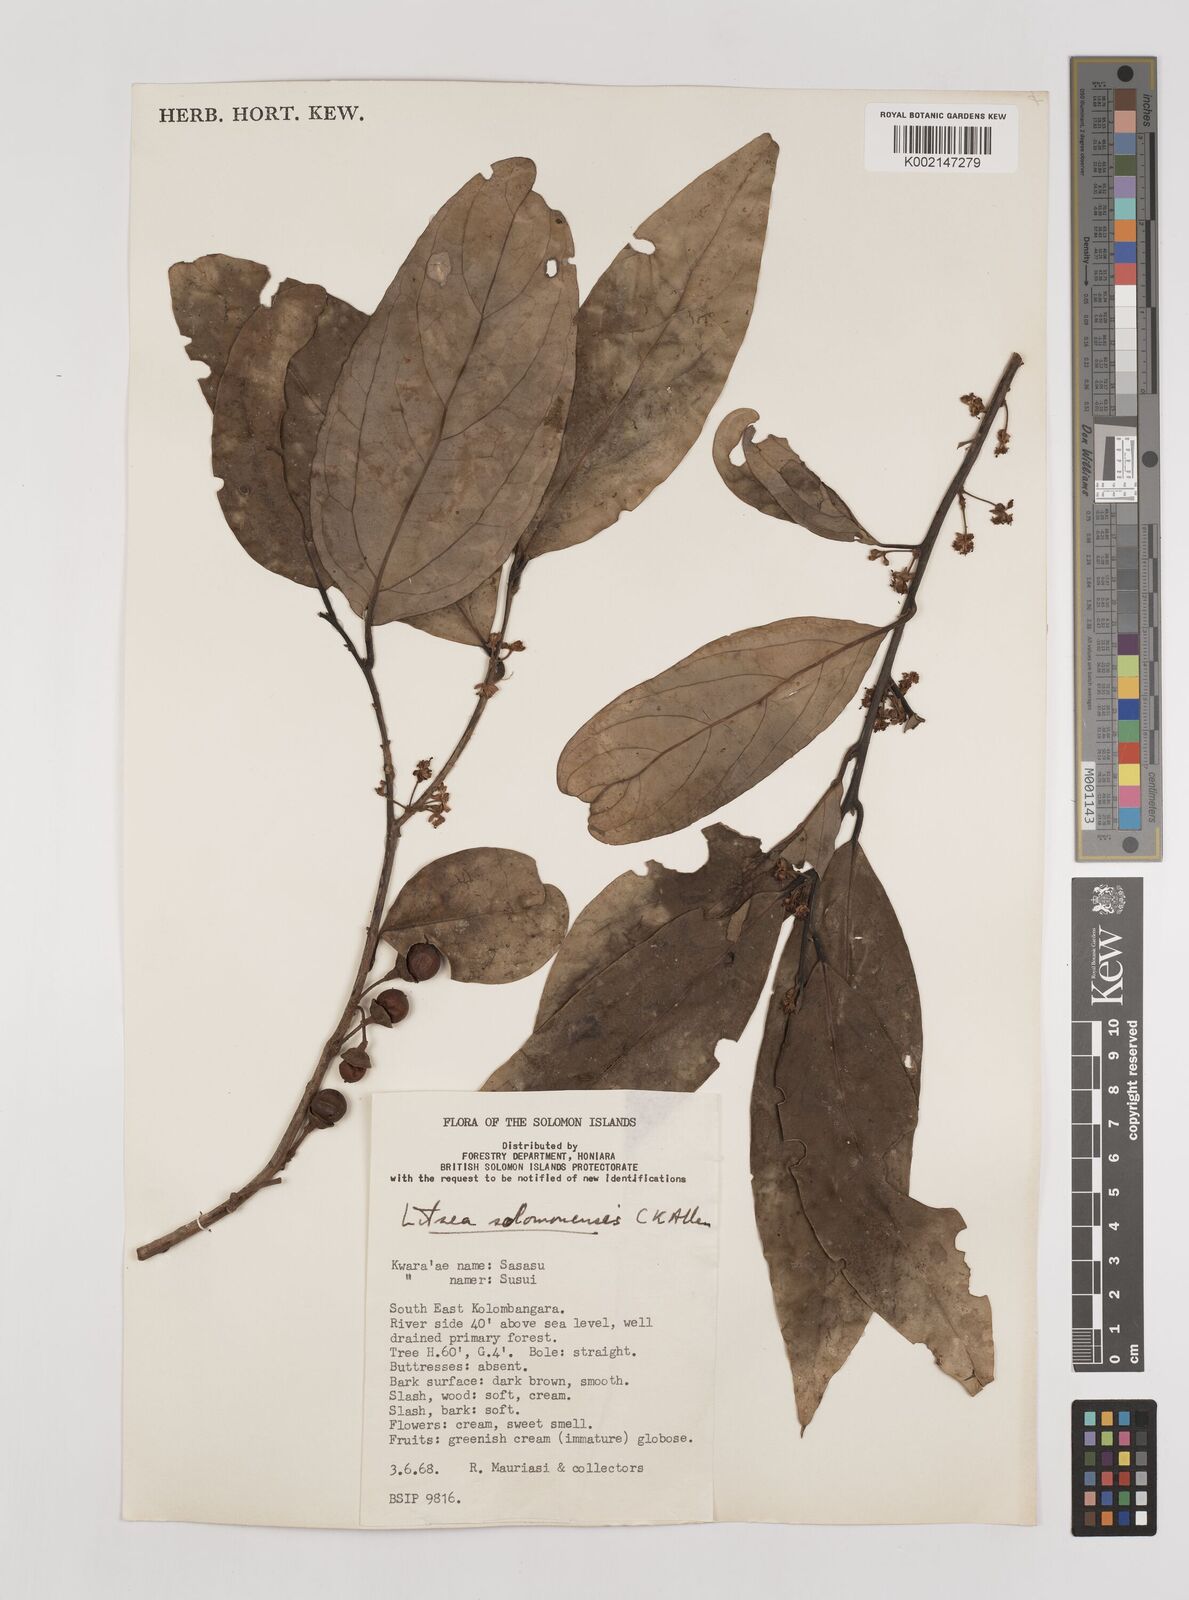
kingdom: Plantae
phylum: Tracheophyta
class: Magnoliopsida
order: Laurales
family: Lauraceae
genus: Litsea
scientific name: Litsea timoriana
